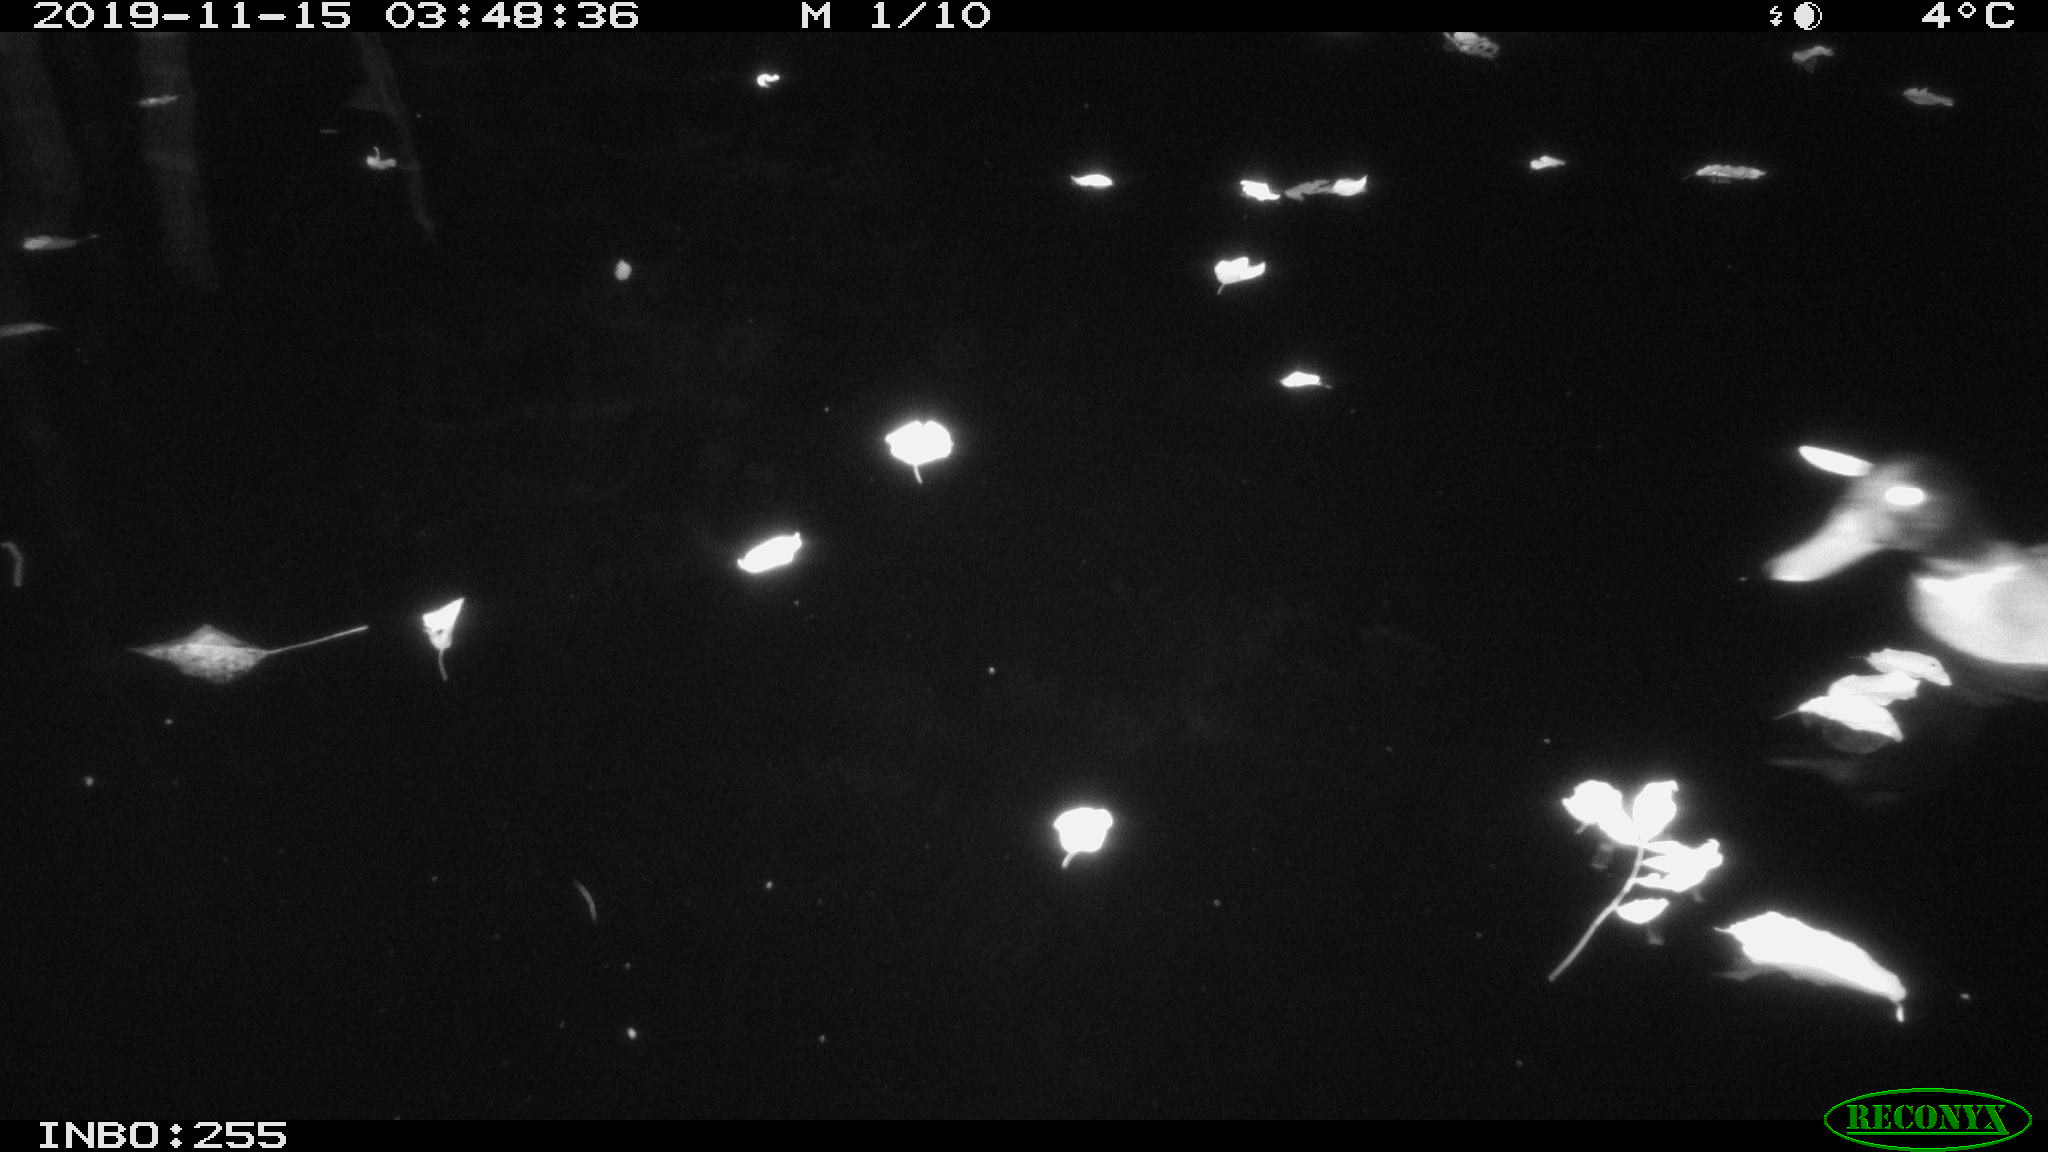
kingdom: Animalia
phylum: Chordata
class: Aves
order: Anseriformes
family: Anatidae
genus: Anas
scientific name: Anas platyrhynchos
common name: Mallard
